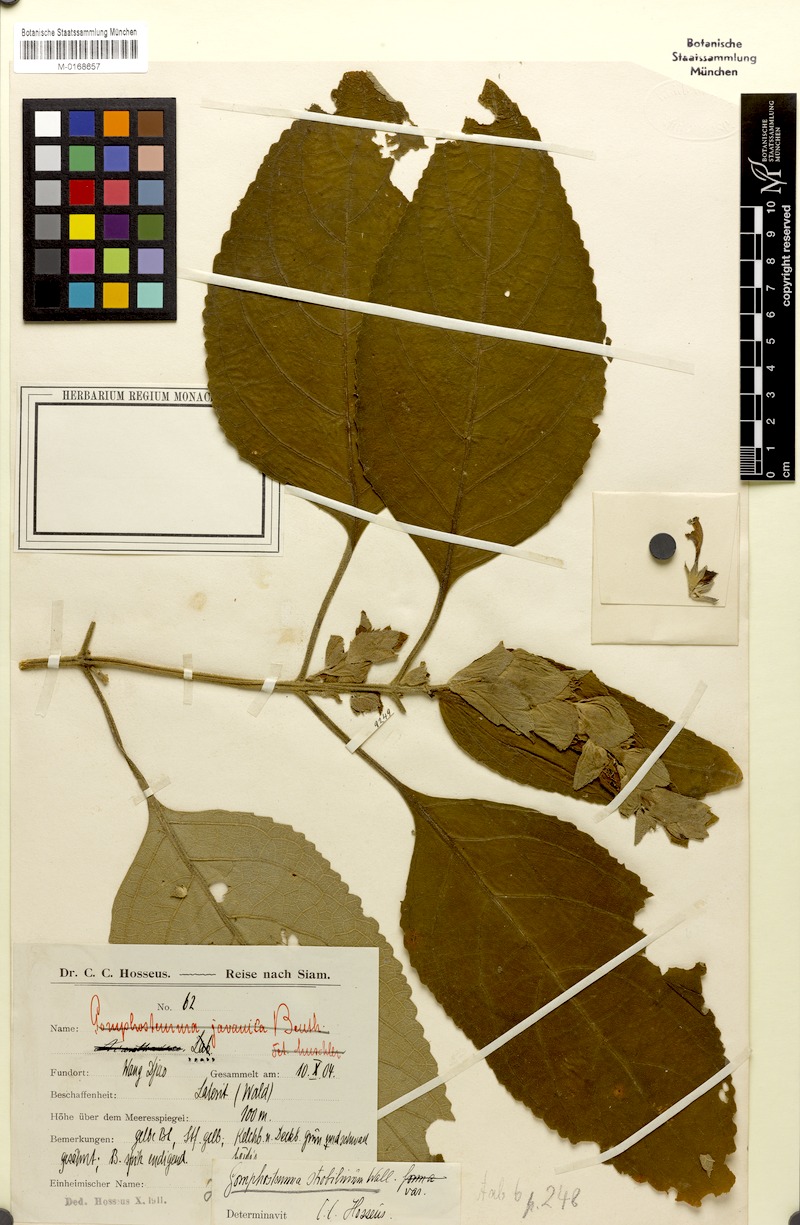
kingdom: Plantae
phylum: Tracheophyta
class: Magnoliopsida
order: Lamiales
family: Lamiaceae
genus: Gomphostemma
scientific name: Gomphostemma strobilinum
